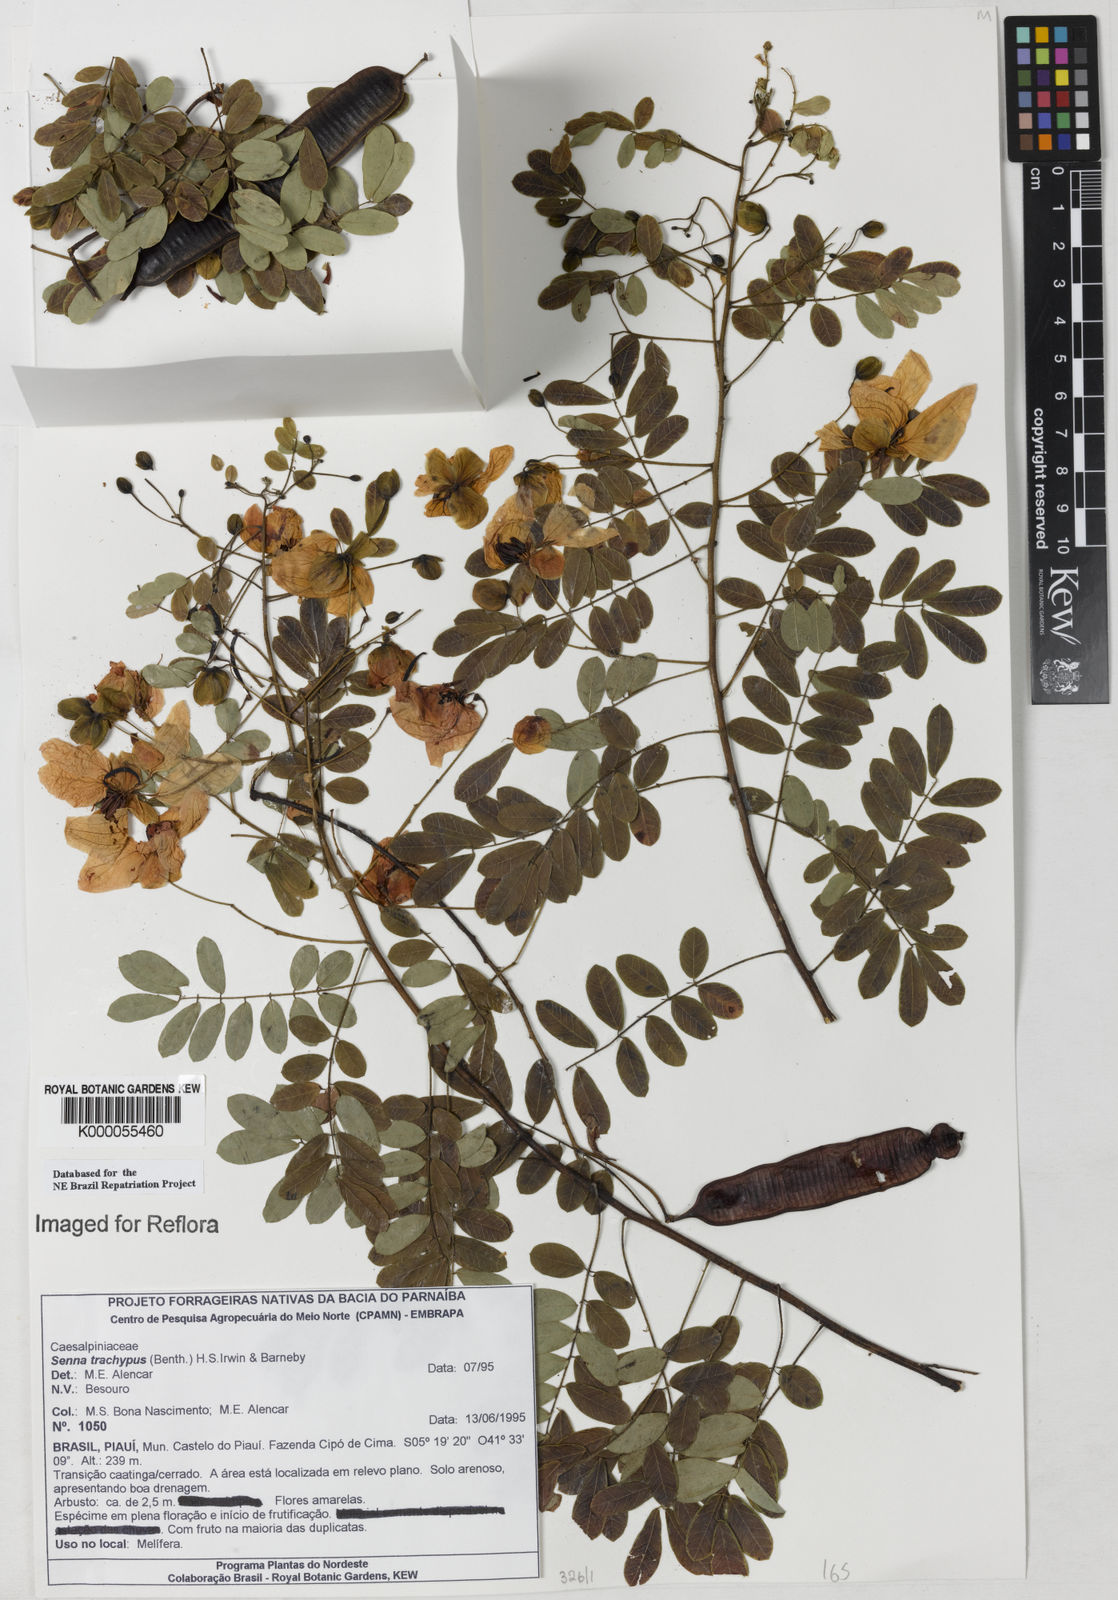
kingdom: Plantae
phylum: Tracheophyta
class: Magnoliopsida
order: Fabales
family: Fabaceae
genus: Senna
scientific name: Senna trachypus
